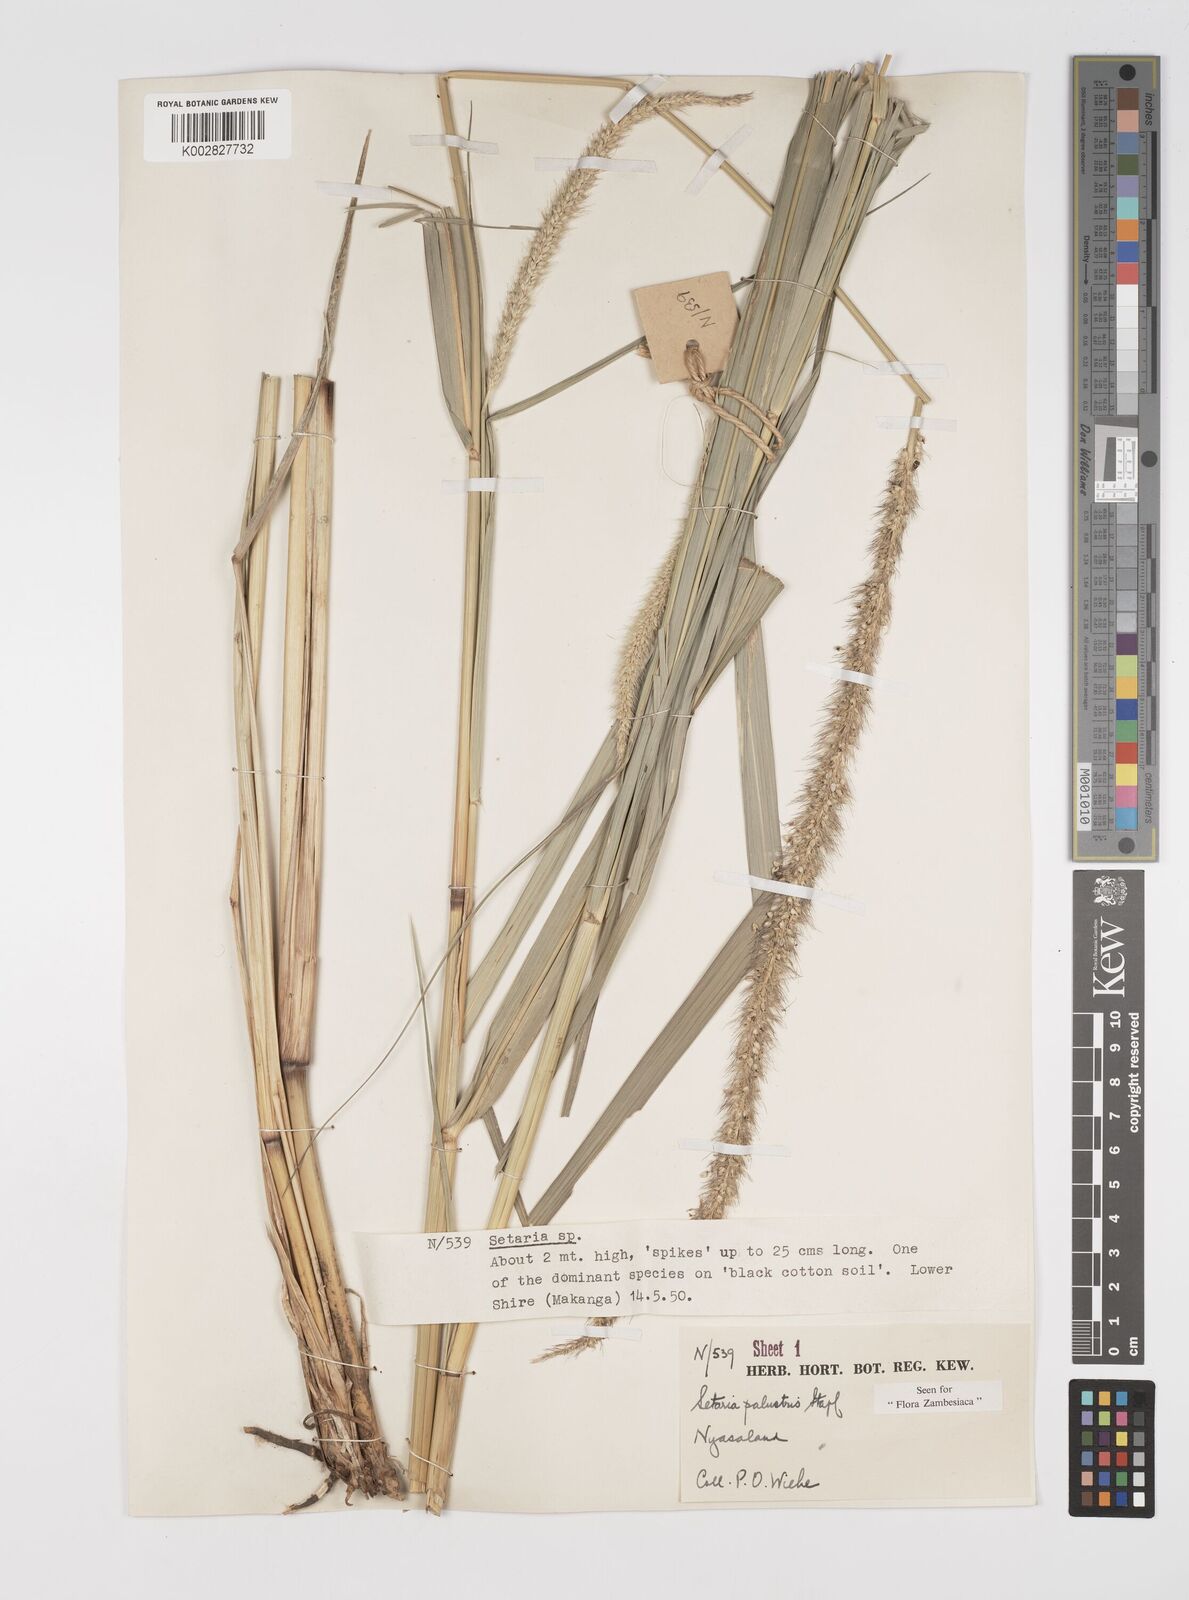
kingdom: Plantae
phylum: Tracheophyta
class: Liliopsida
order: Poales
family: Poaceae
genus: Setaria
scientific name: Setaria incrassata
